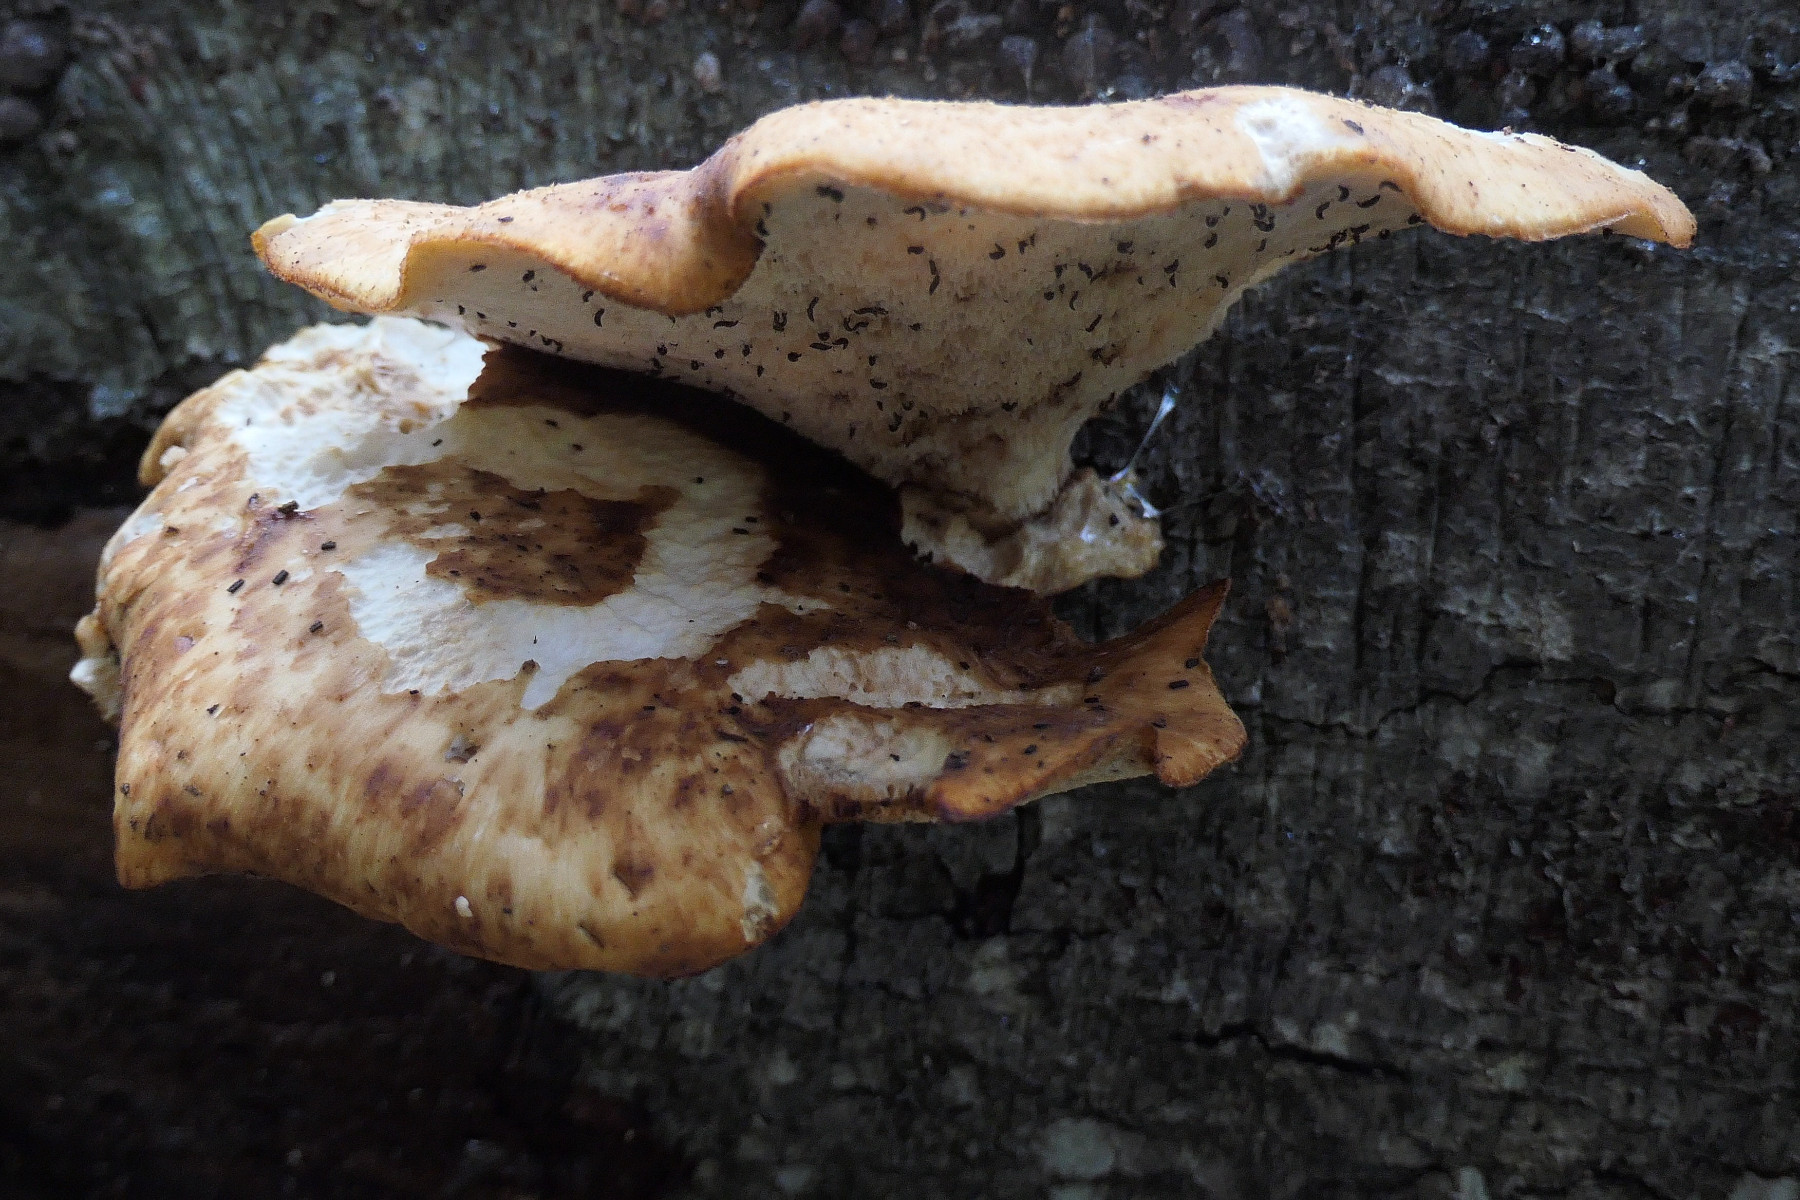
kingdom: Fungi
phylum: Basidiomycota
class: Agaricomycetes
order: Polyporales
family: Polyporaceae
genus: Cerioporus
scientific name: Cerioporus squamosus
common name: skællet stilkporesvamp
